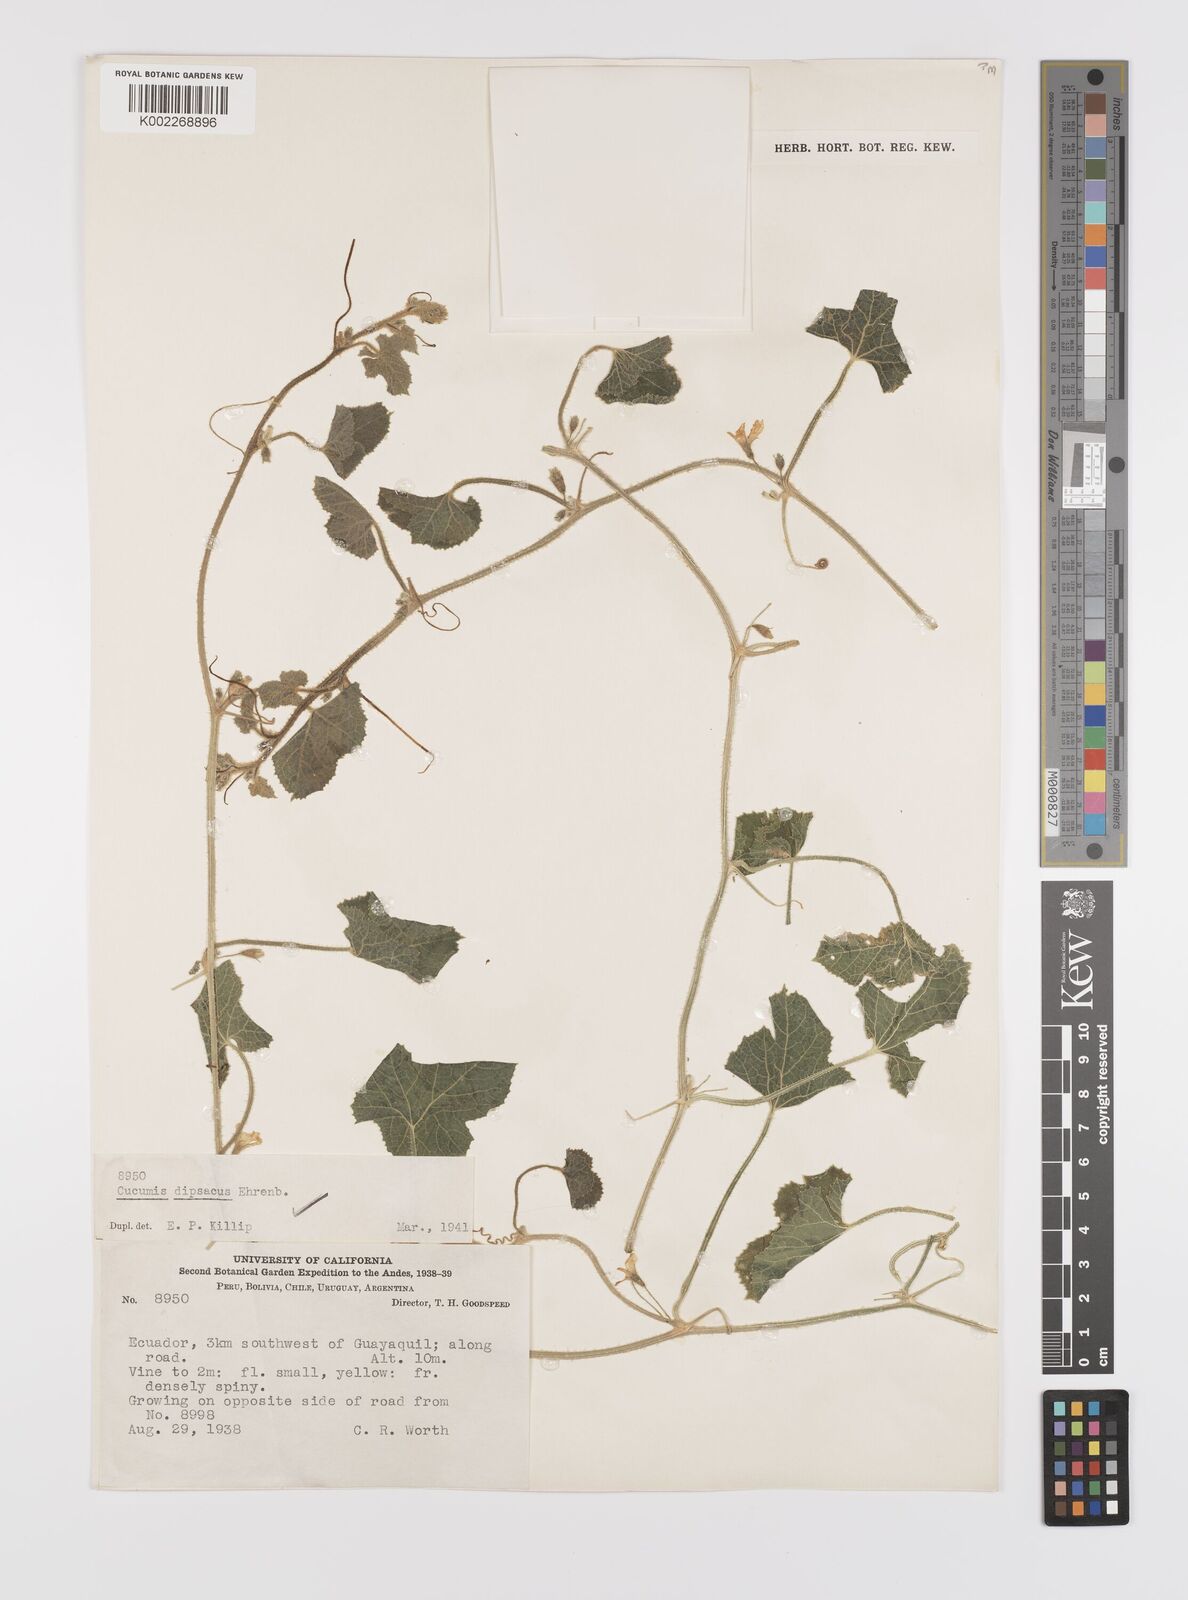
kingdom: Plantae
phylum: Tracheophyta
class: Magnoliopsida
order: Cucurbitales
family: Cucurbitaceae
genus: Cucumis
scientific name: Cucumis
